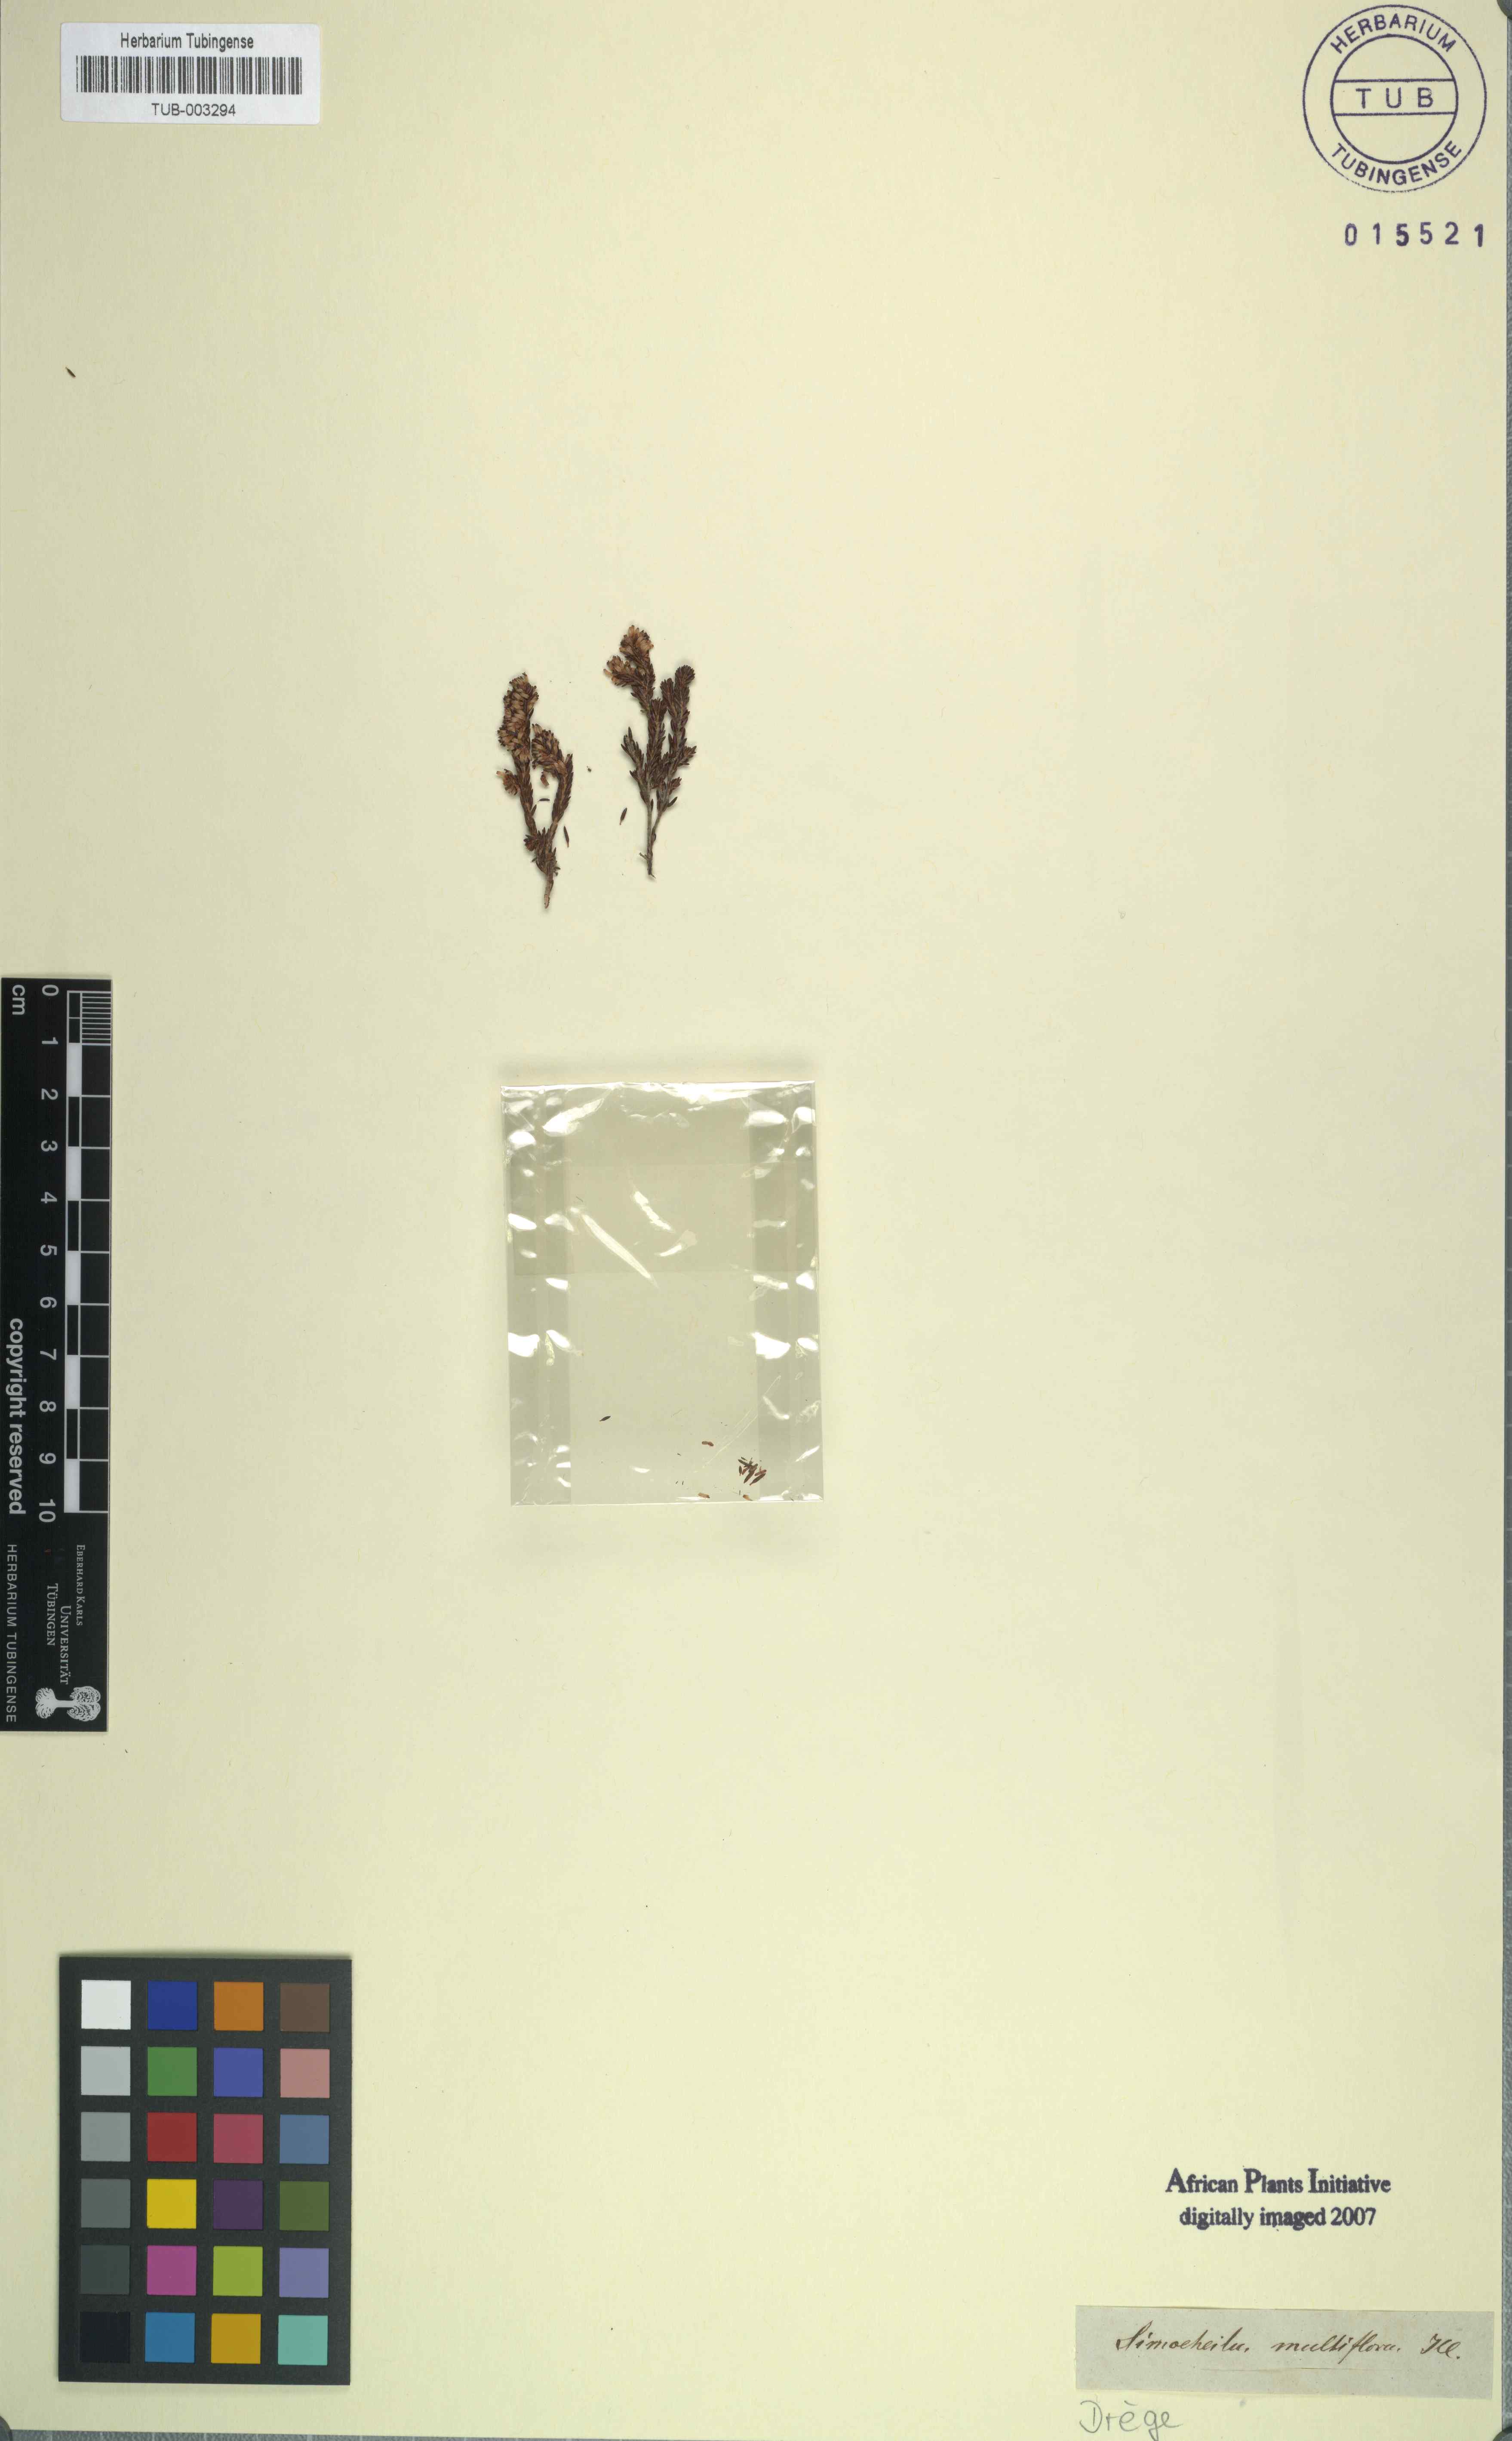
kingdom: Plantae
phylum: Tracheophyta
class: Magnoliopsida
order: Ericales
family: Ericaceae
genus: Erica
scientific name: Erica uberiflora
